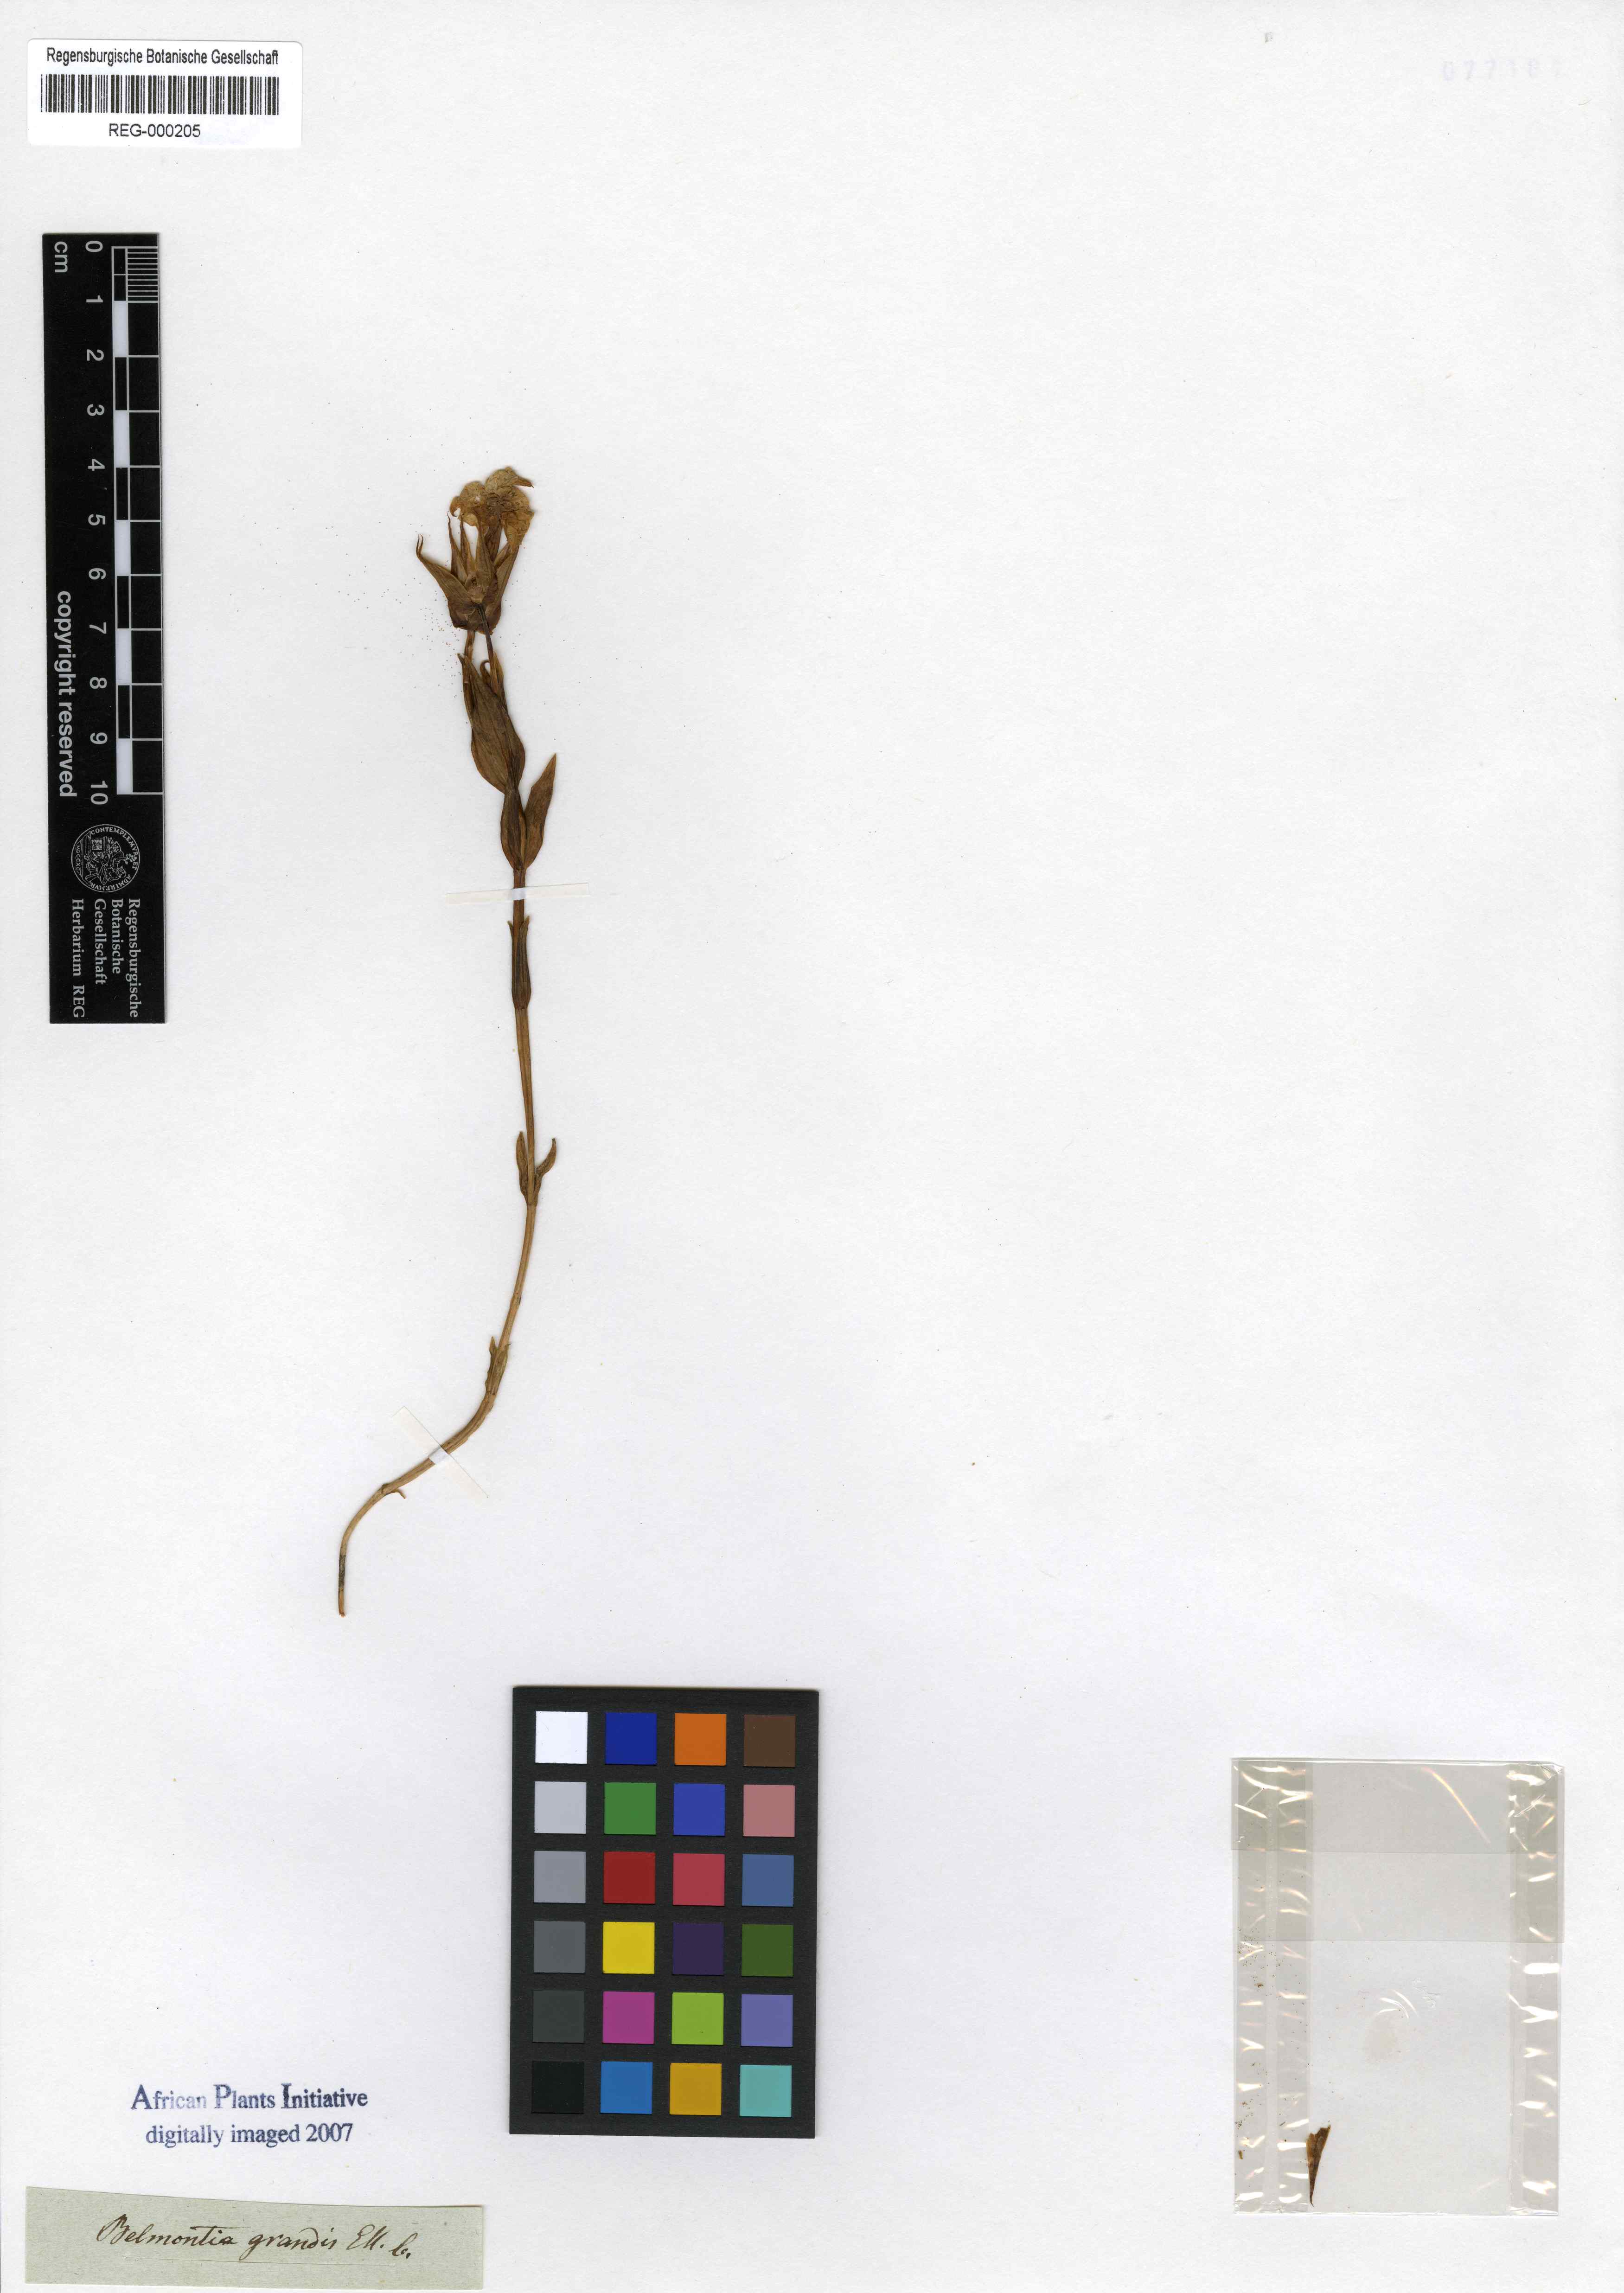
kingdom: Plantae
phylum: Tracheophyta
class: Magnoliopsida
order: Gentianales
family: Gentianaceae
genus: Exochaenium
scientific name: Exochaenium grande
